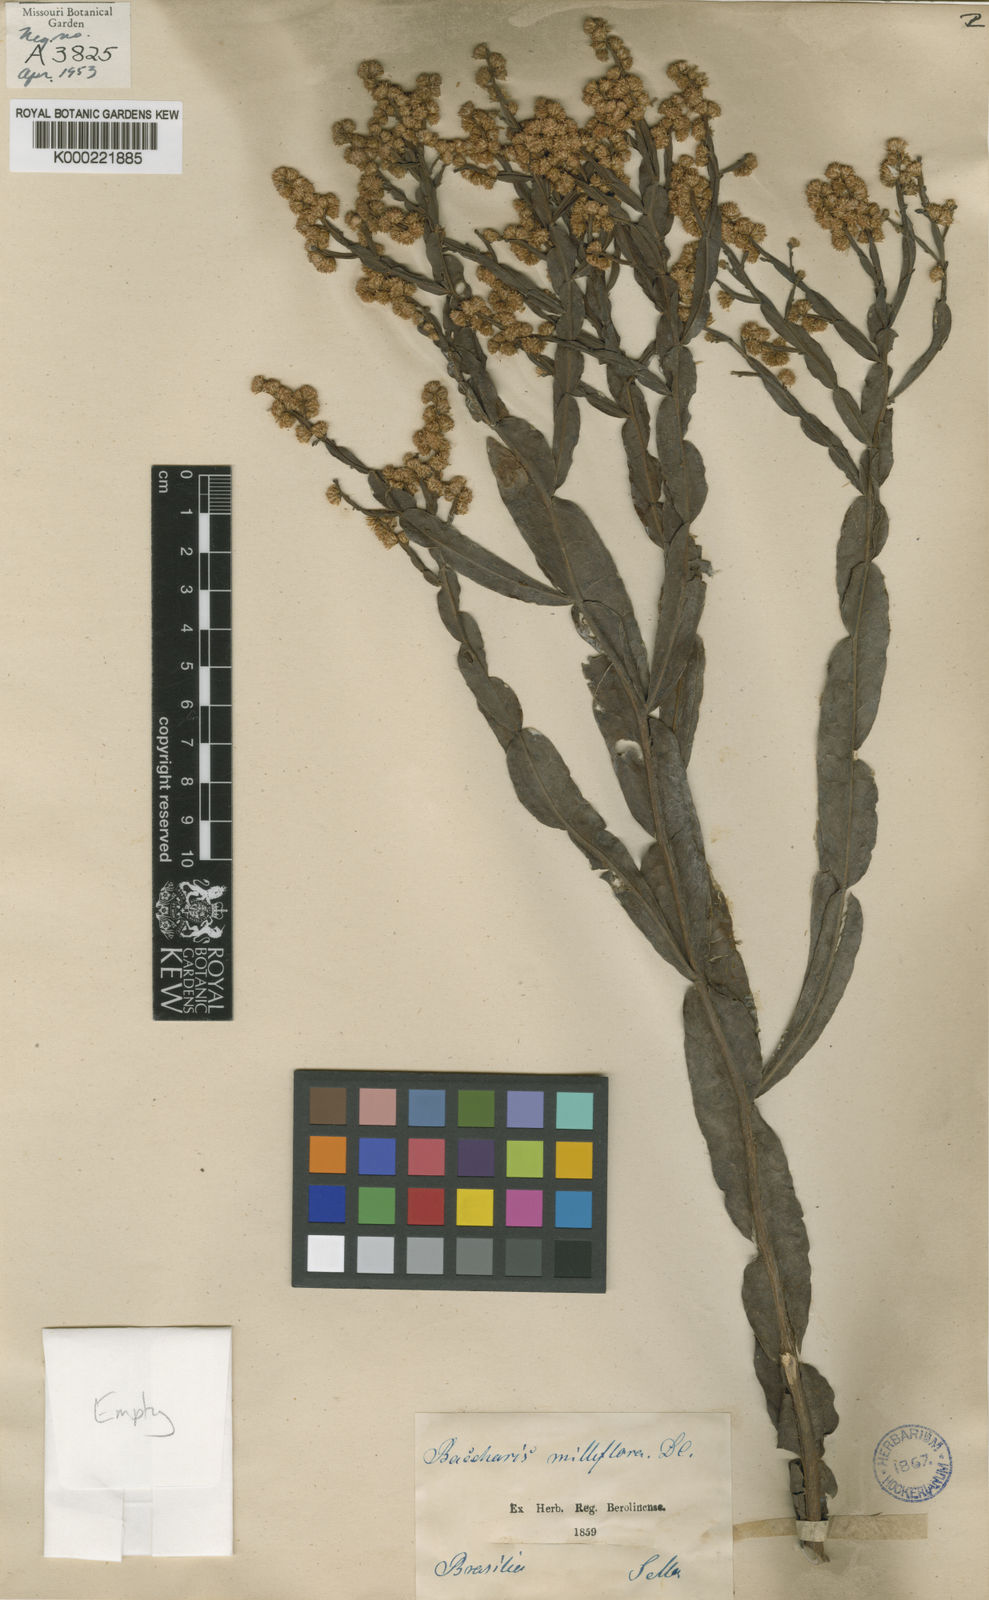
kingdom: Plantae
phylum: Tracheophyta
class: Magnoliopsida
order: Asterales
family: Asteraceae
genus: Baccharis
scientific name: Baccharis milleflora
